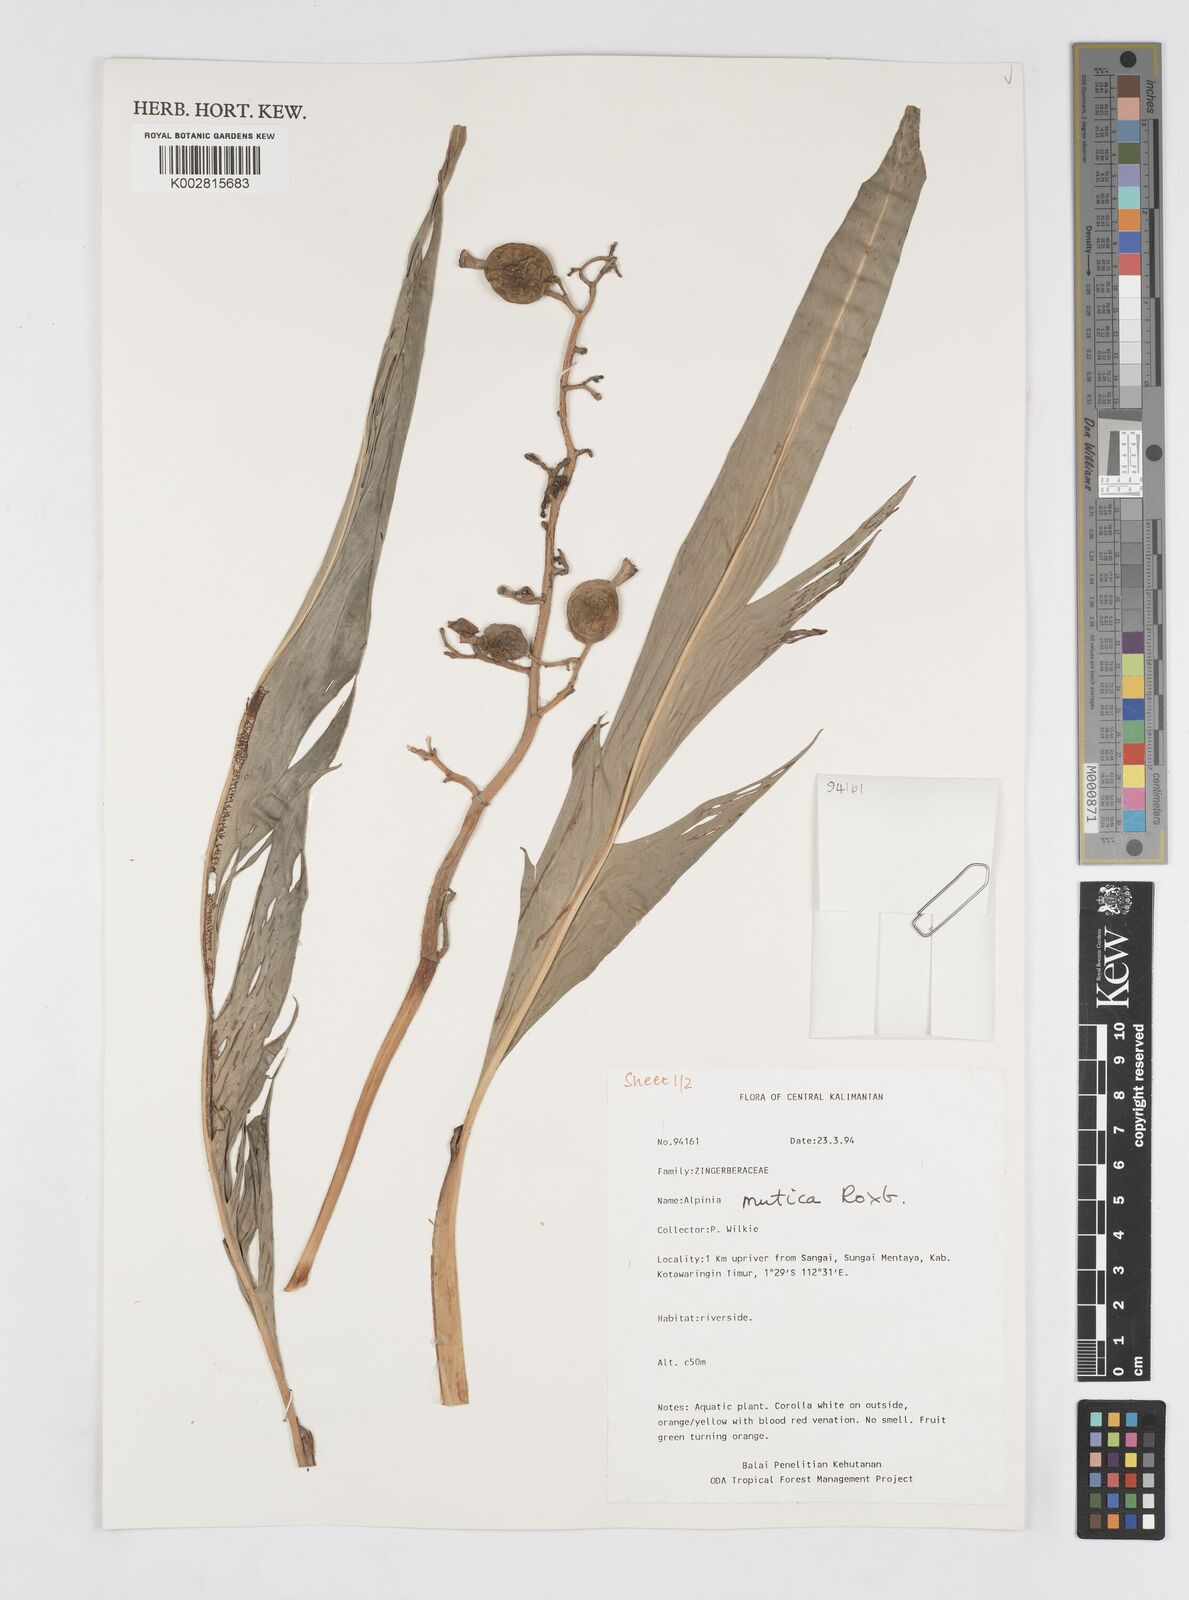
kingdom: Plantae
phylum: Tracheophyta
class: Liliopsida
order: Zingiberales
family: Zingiberaceae
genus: Alpinia
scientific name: Alpinia mutica
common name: Small shell ginger
